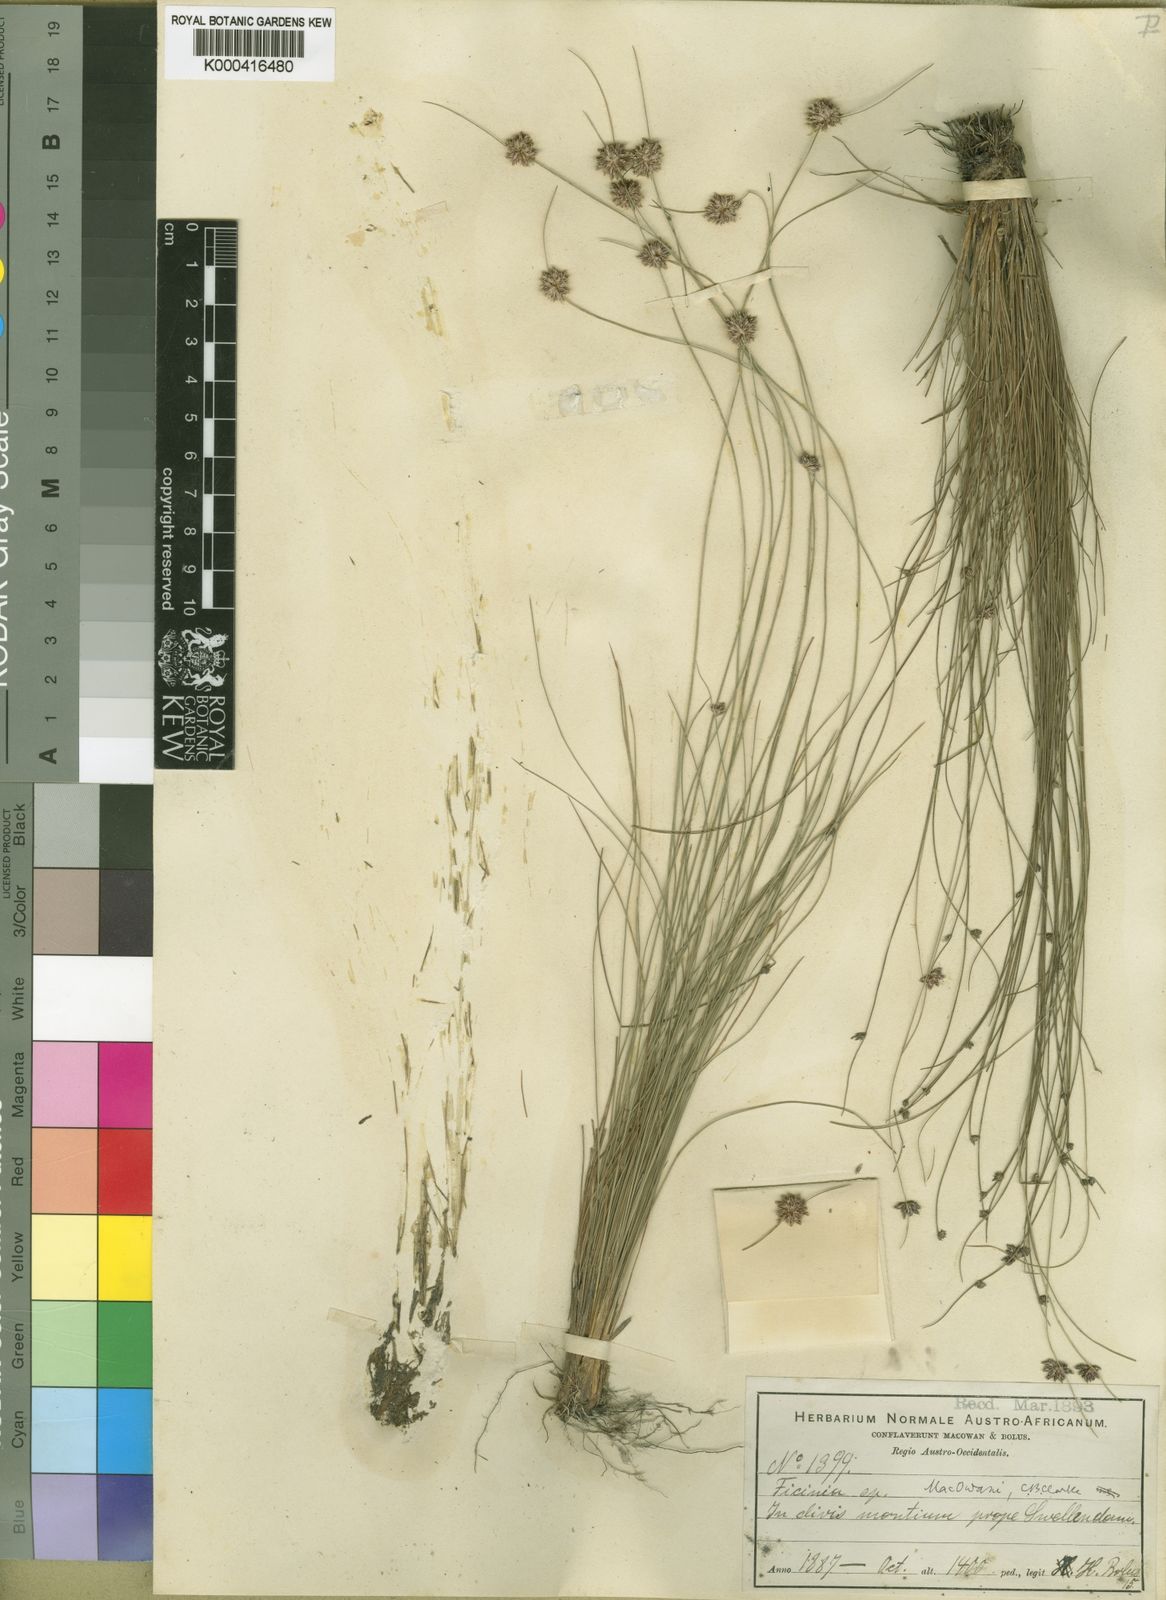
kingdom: Plantae
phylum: Tracheophyta
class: Liliopsida
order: Poales
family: Cyperaceae
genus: Ficinia
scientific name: Ficinia macowanii
